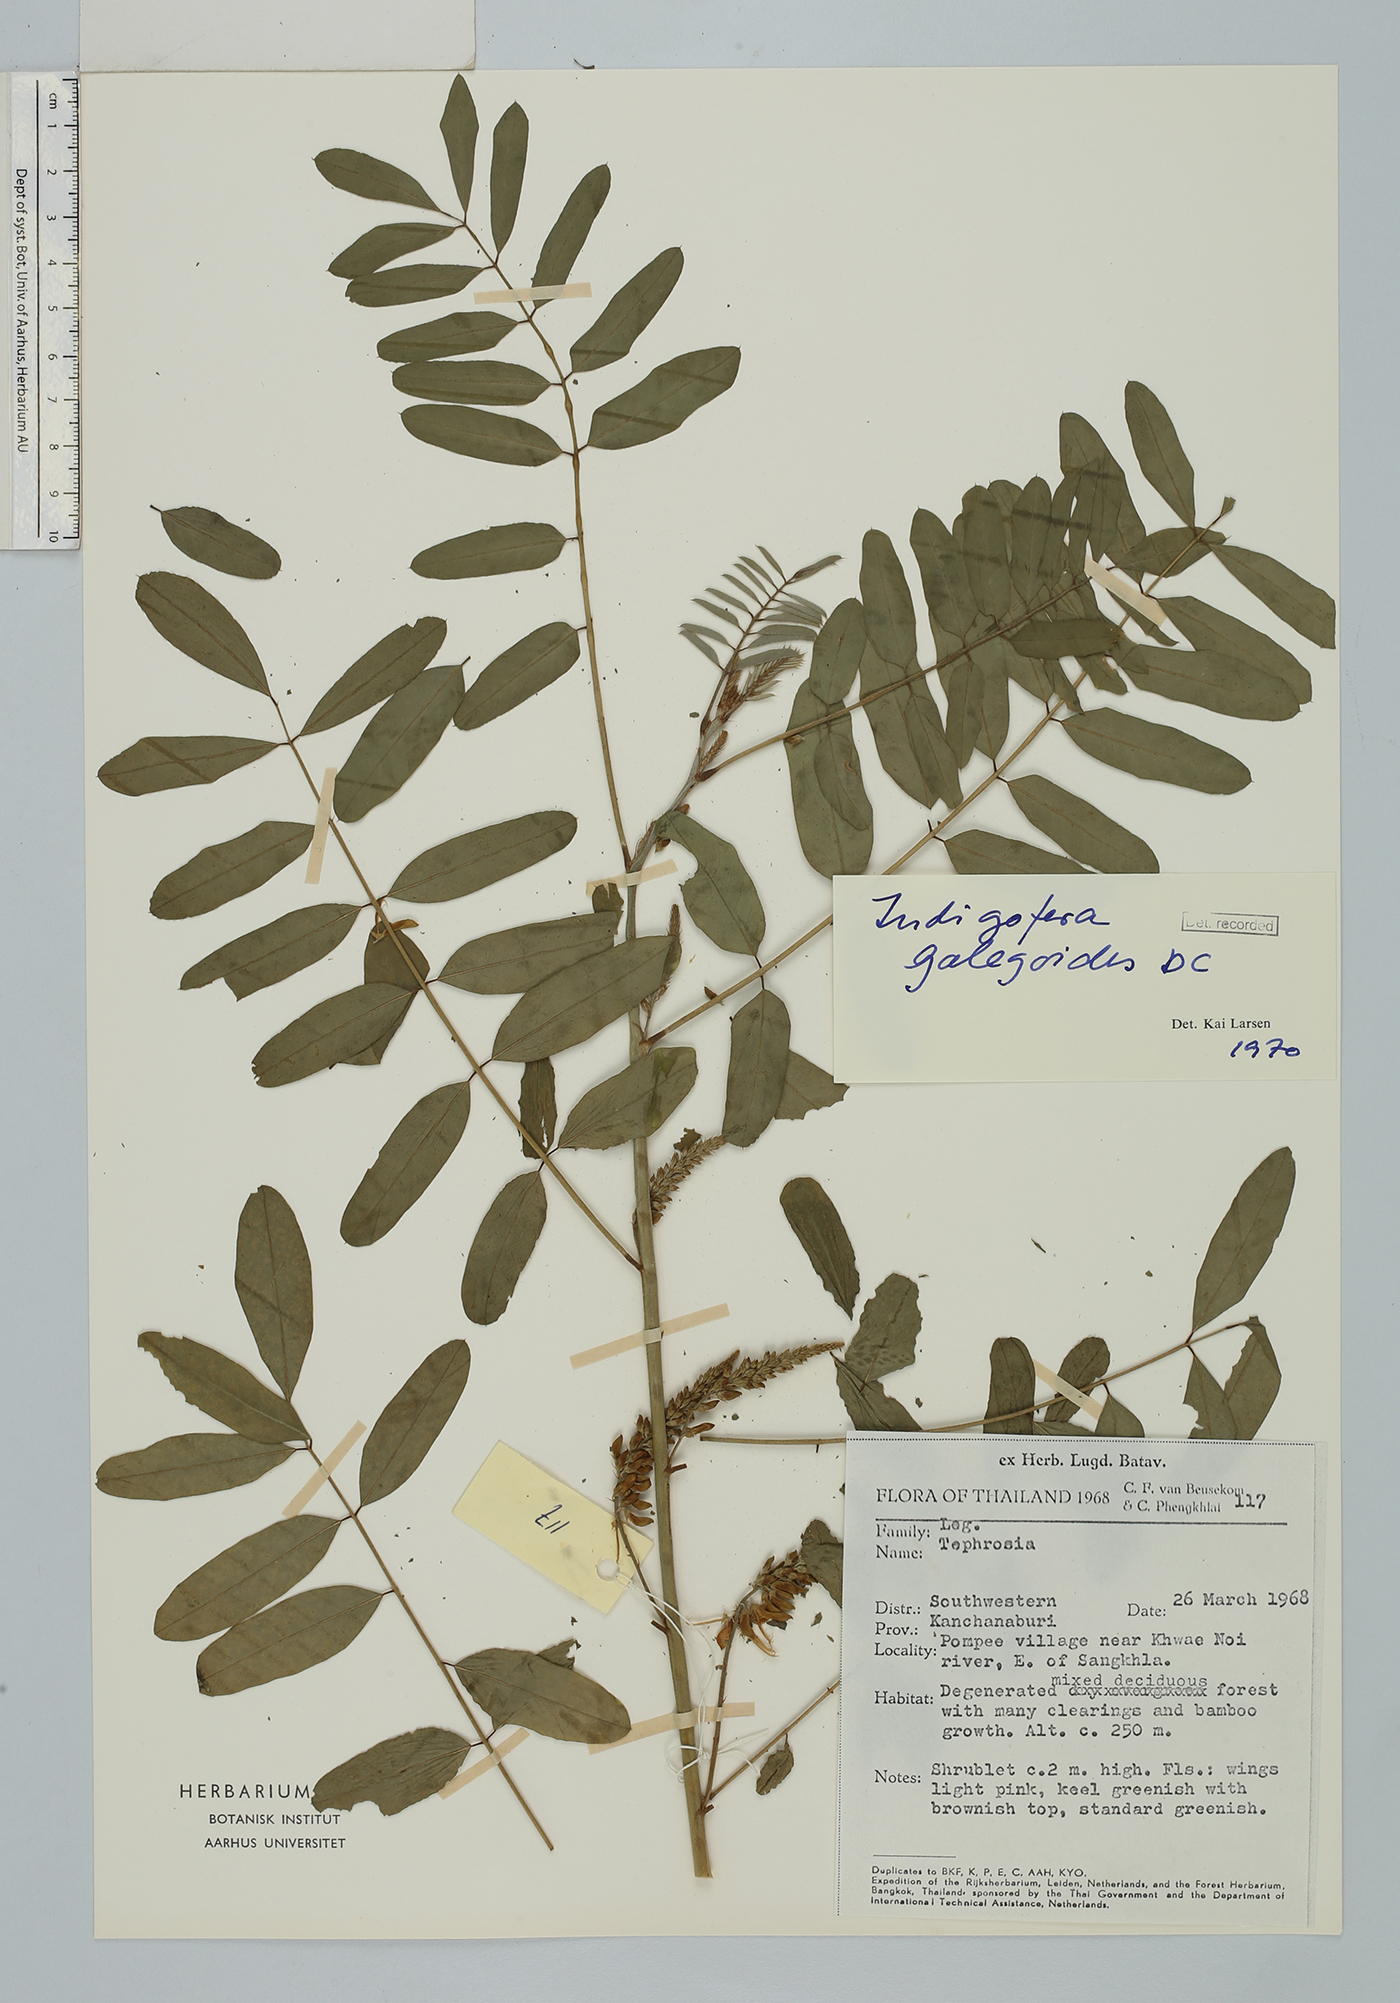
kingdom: Plantae
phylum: Tracheophyta
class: Magnoliopsida
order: Fabales
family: Fabaceae
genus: Indigofera
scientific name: Indigofera galegoides
